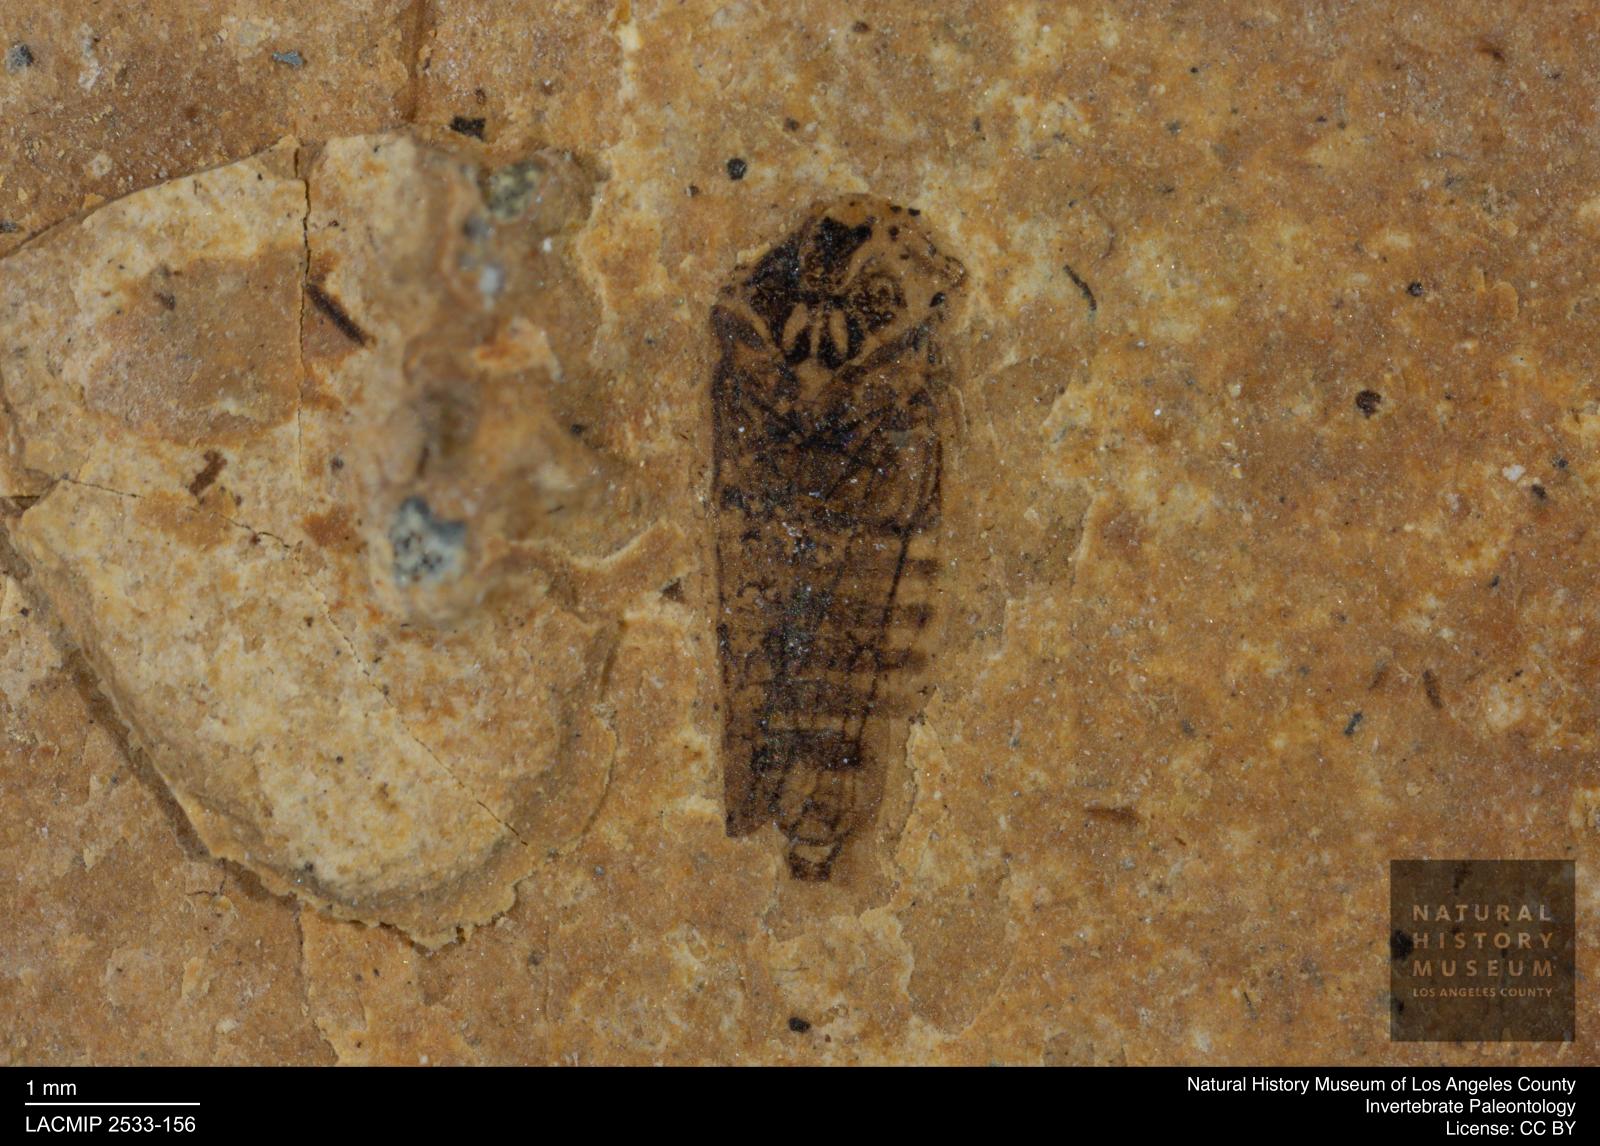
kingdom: Animalia
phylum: Arthropoda
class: Insecta
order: Hemiptera
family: Cicadellidae
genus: Iassus
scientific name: Iassus sepultus
